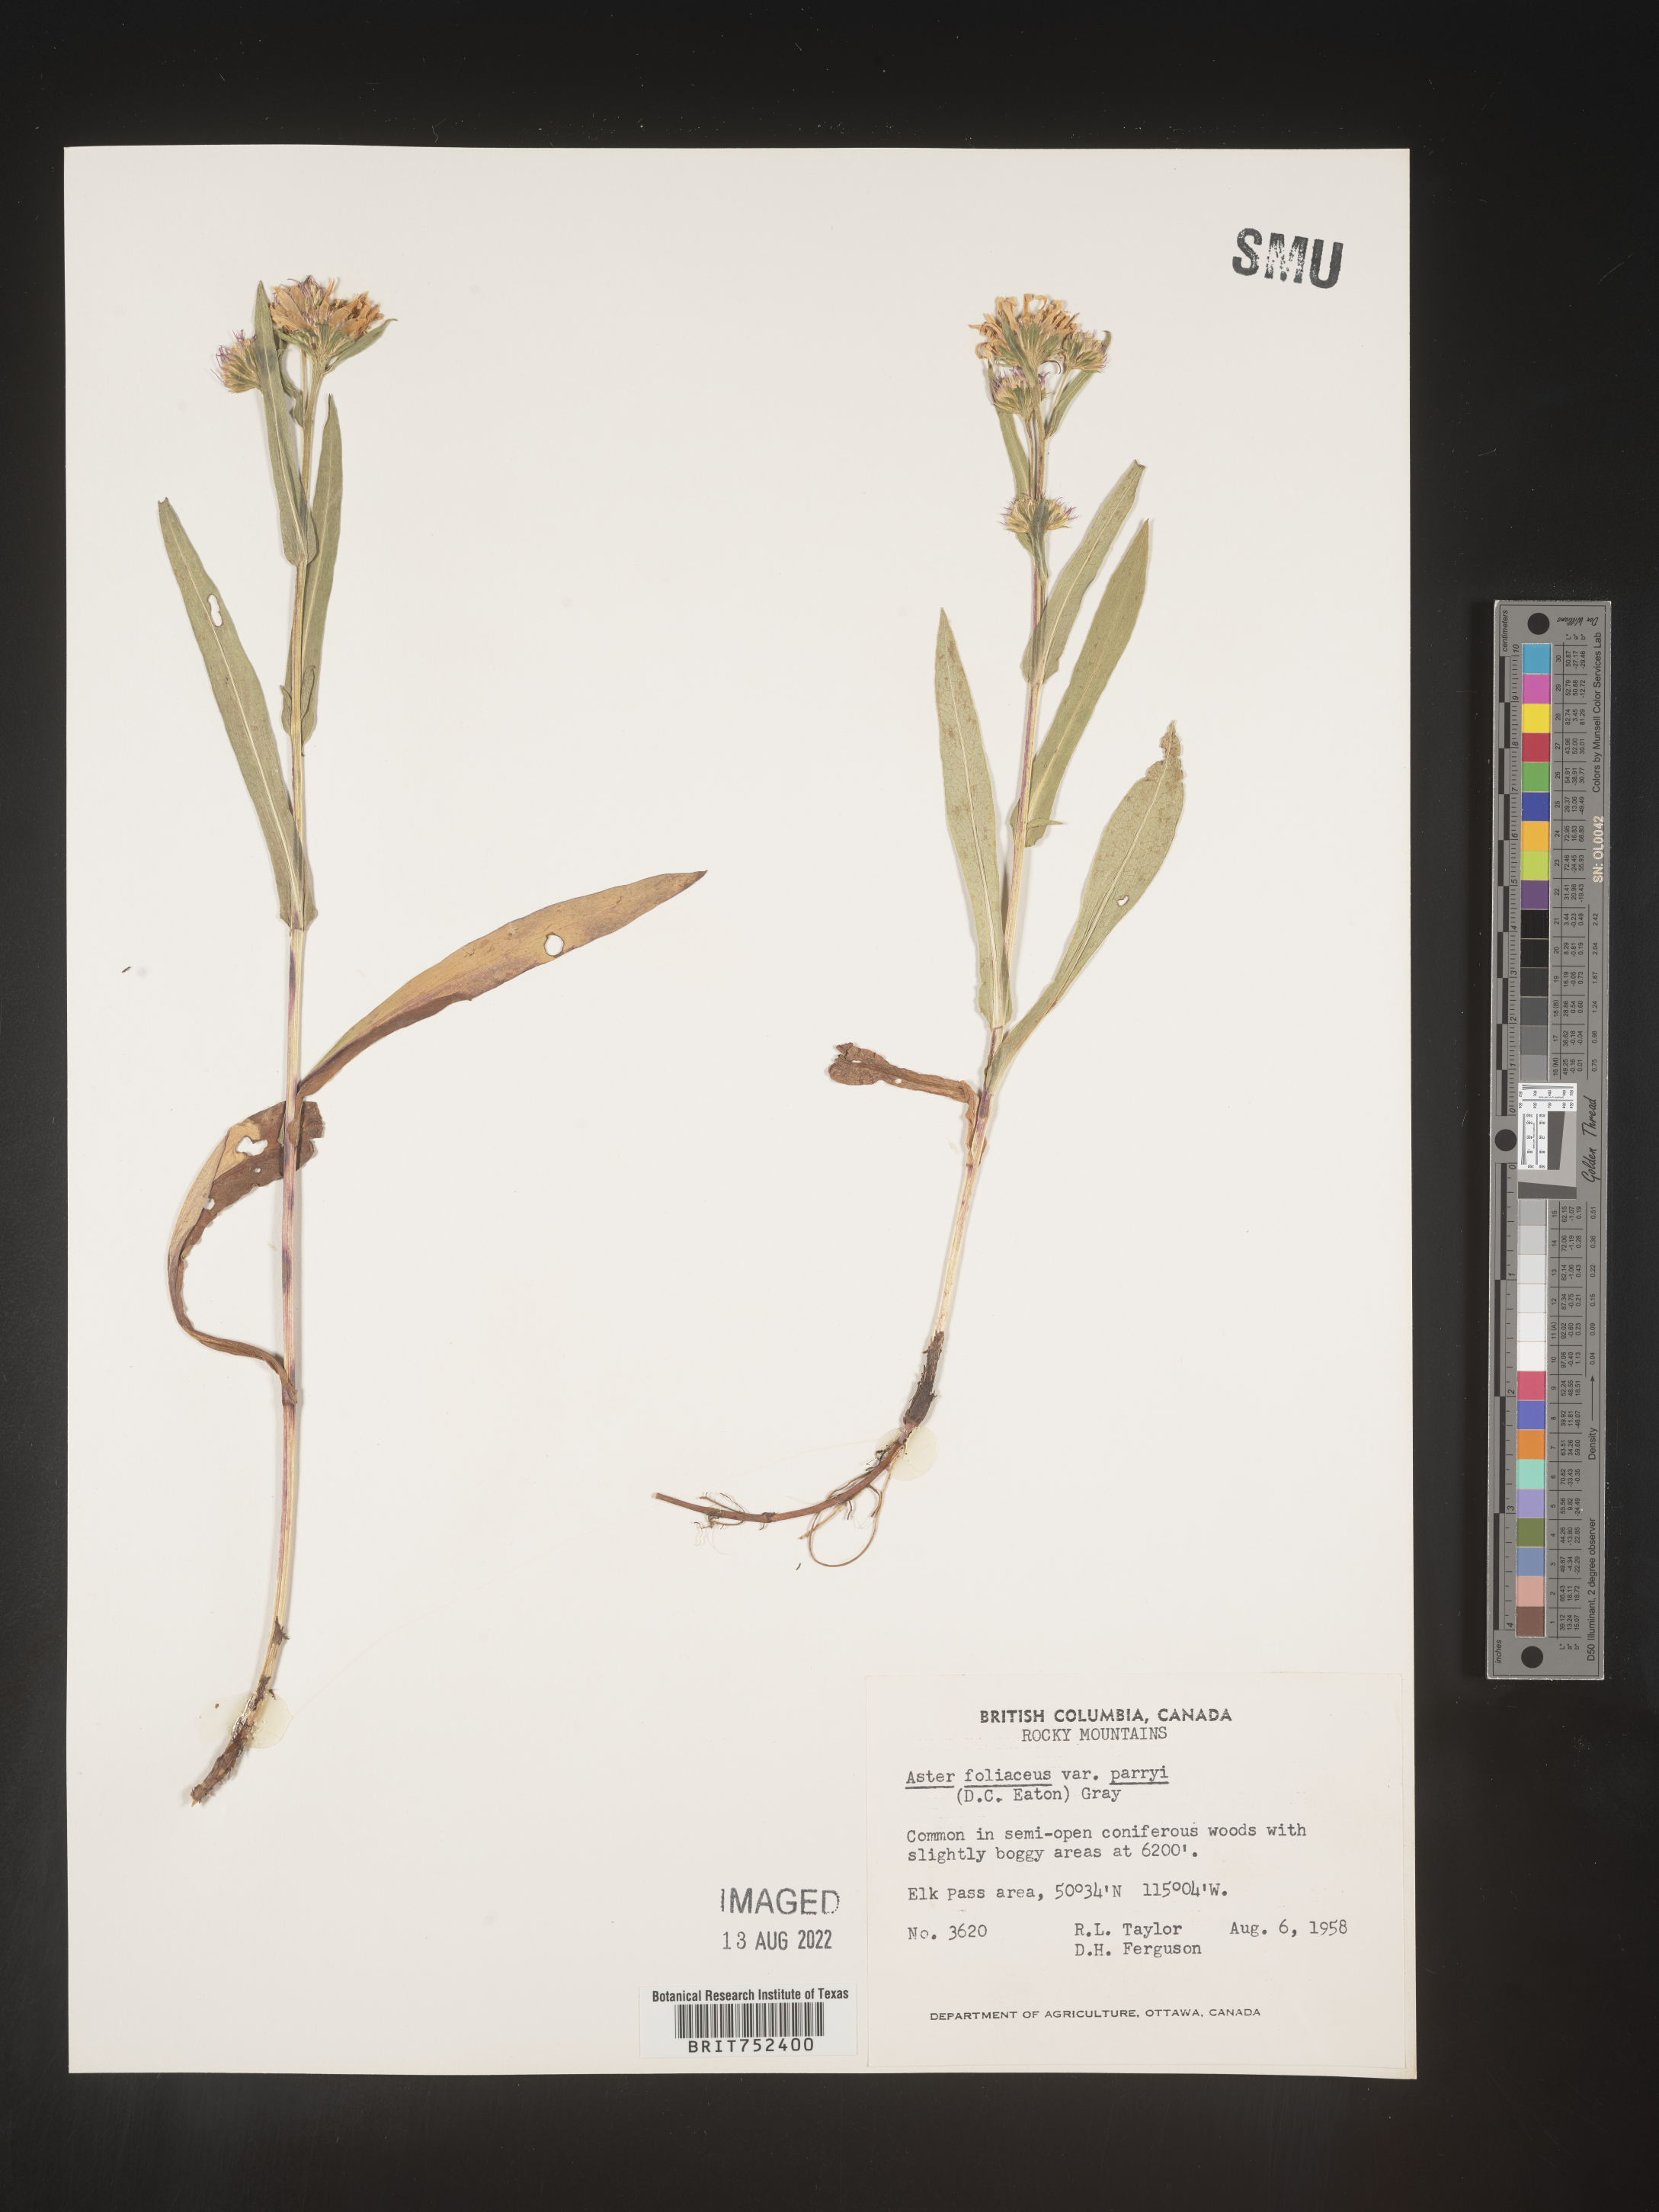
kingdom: Plantae
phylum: Tracheophyta
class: Magnoliopsida
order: Asterales
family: Asteraceae
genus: Symphyotrichum
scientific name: Symphyotrichum foliaceum
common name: Leafy aster
